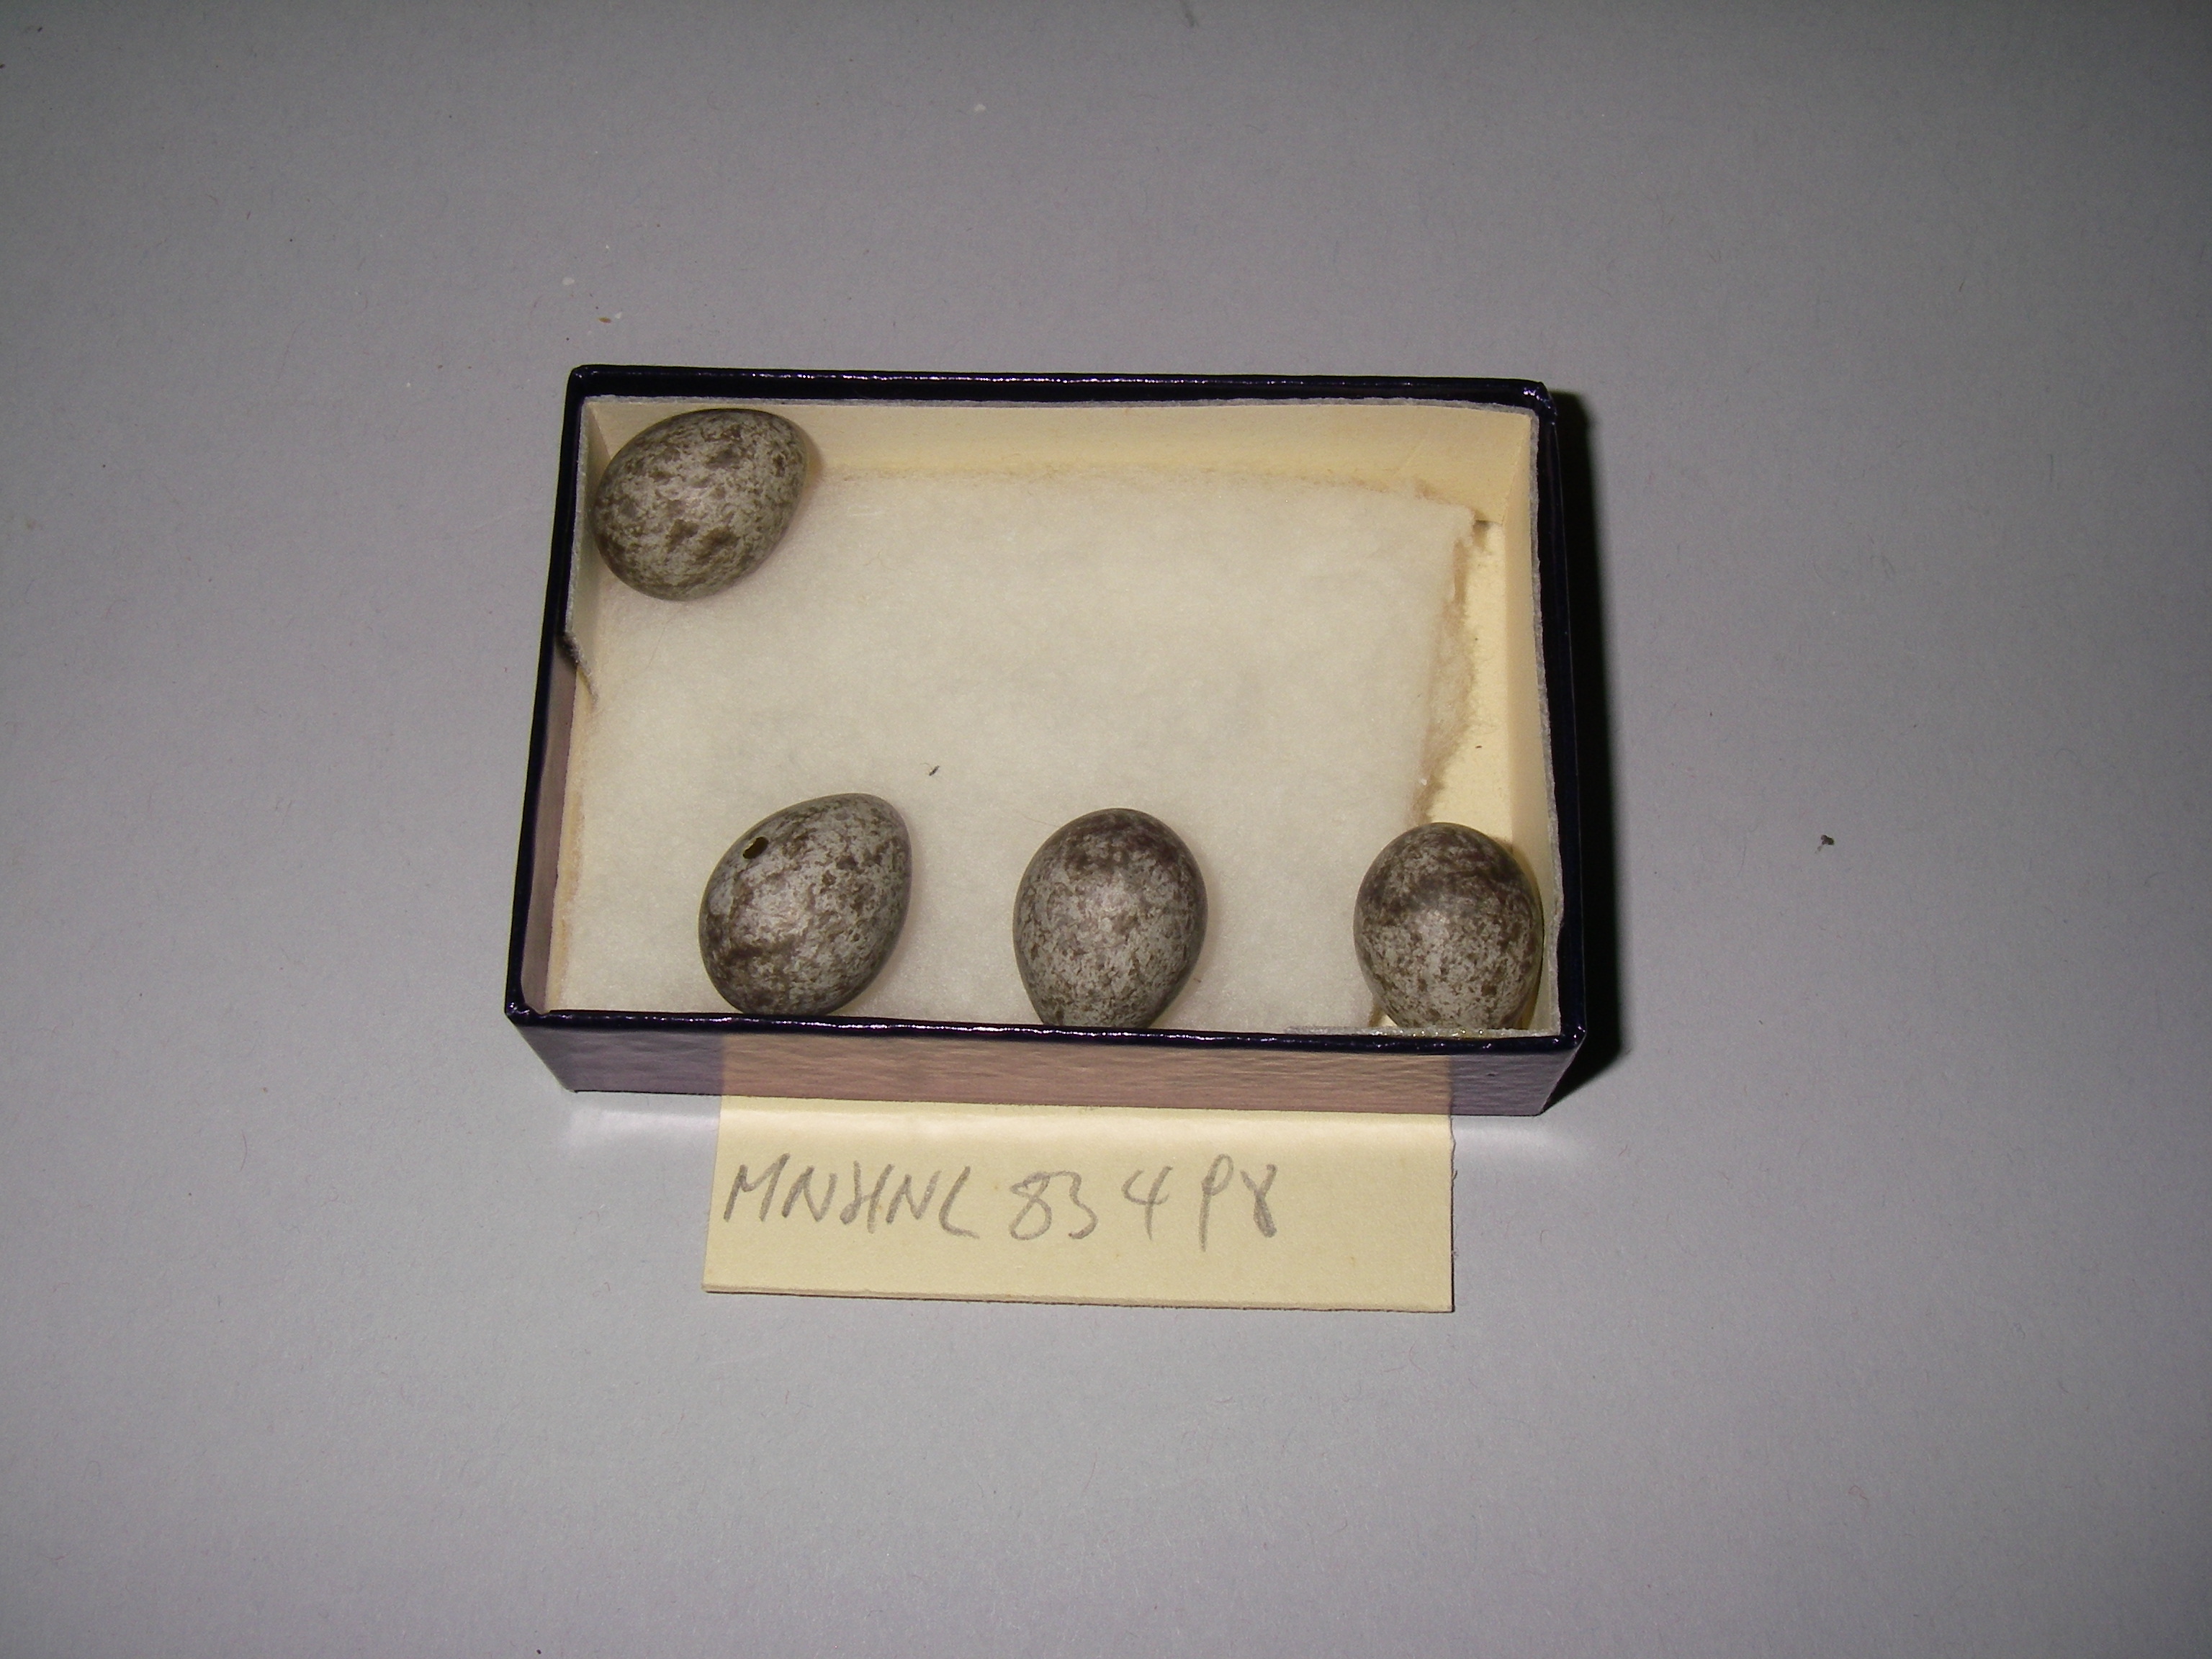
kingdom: Animalia
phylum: Chordata
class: Aves
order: Passeriformes
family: Motacillidae
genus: Anthus
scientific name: Anthus pratensis
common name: Meadow pipit
